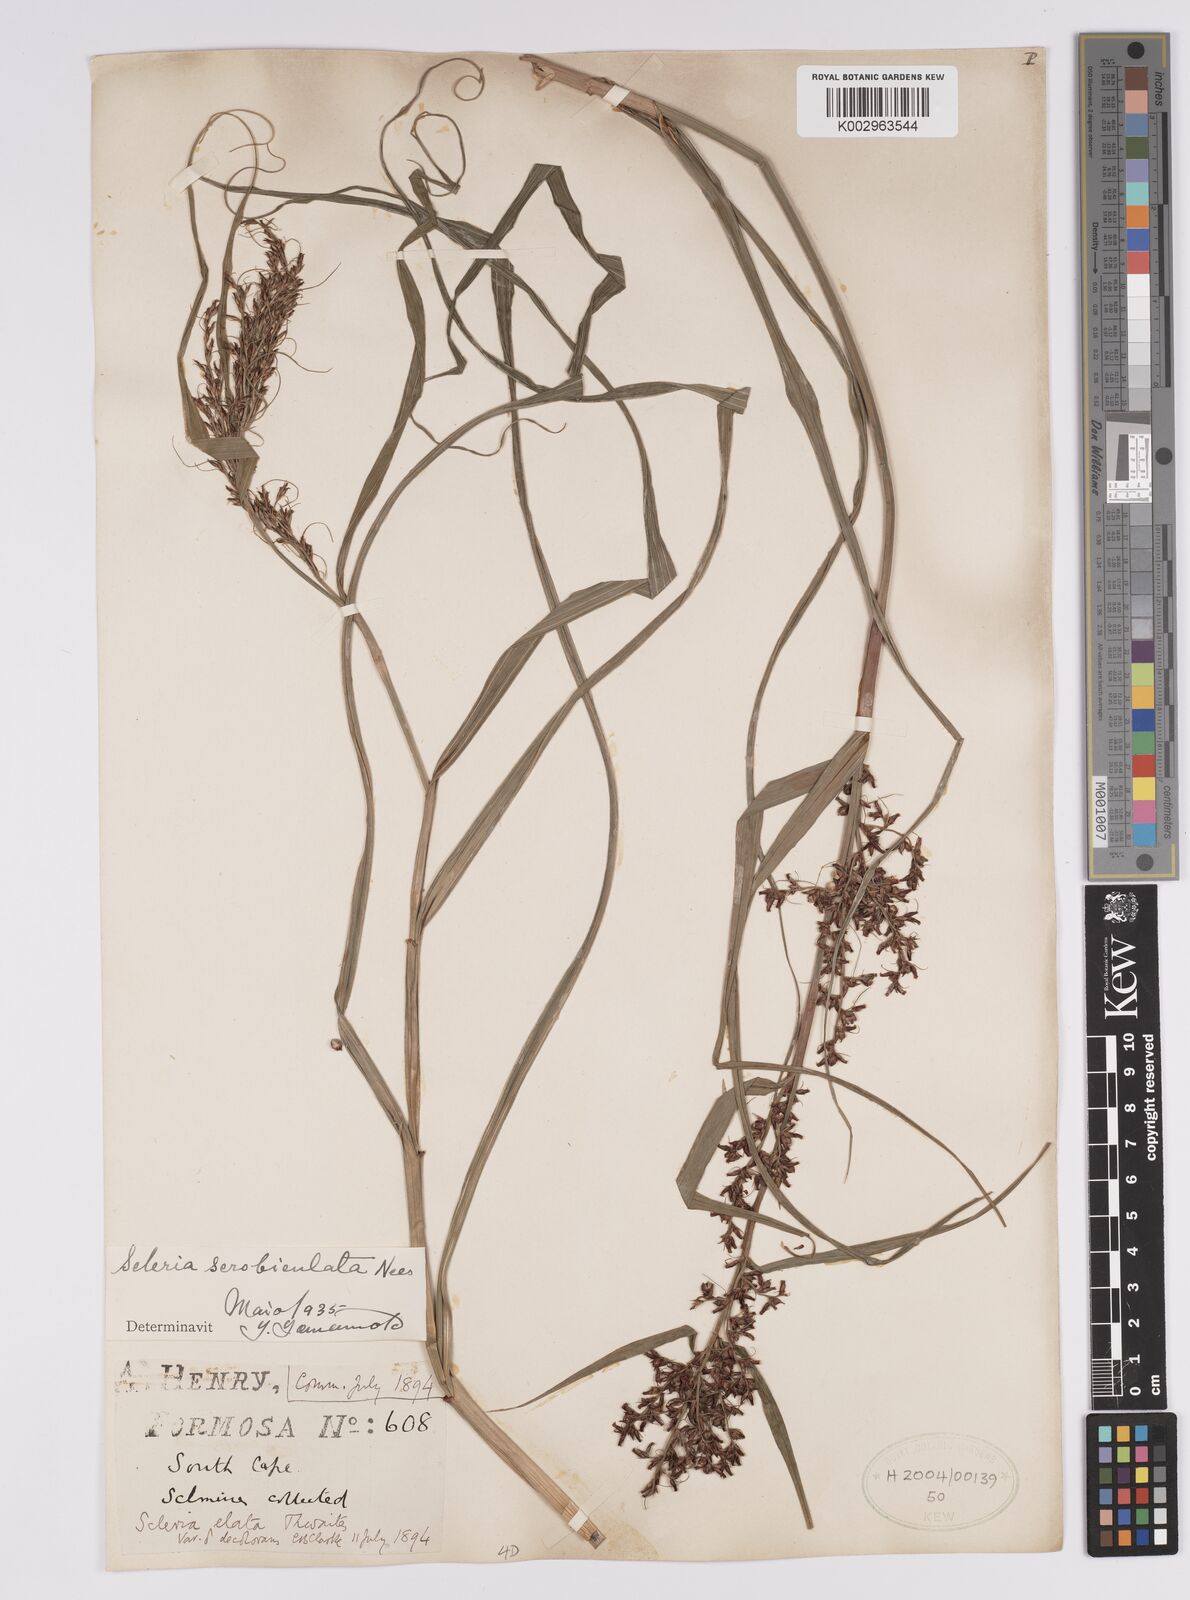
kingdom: Plantae
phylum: Tracheophyta
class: Liliopsida
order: Poales
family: Cyperaceae
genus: Scleria
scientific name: Scleria scrobiculata
